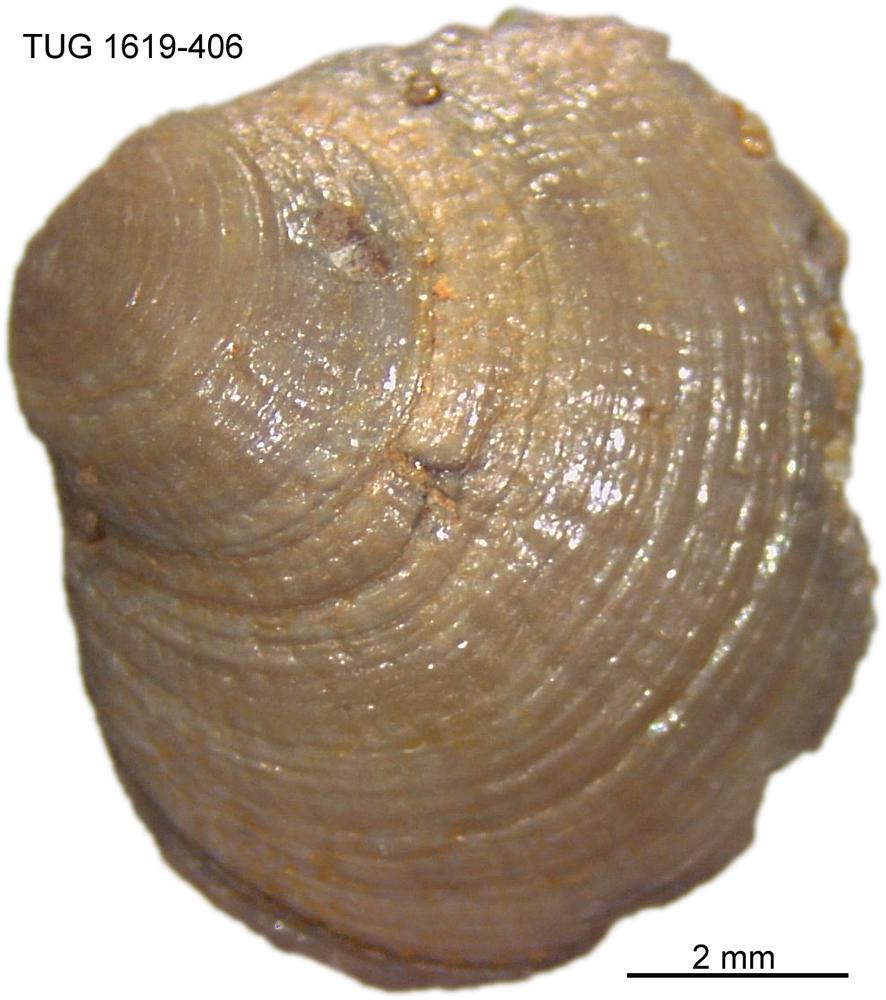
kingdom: Animalia
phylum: Porifera
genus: Ungula
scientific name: Ungula
